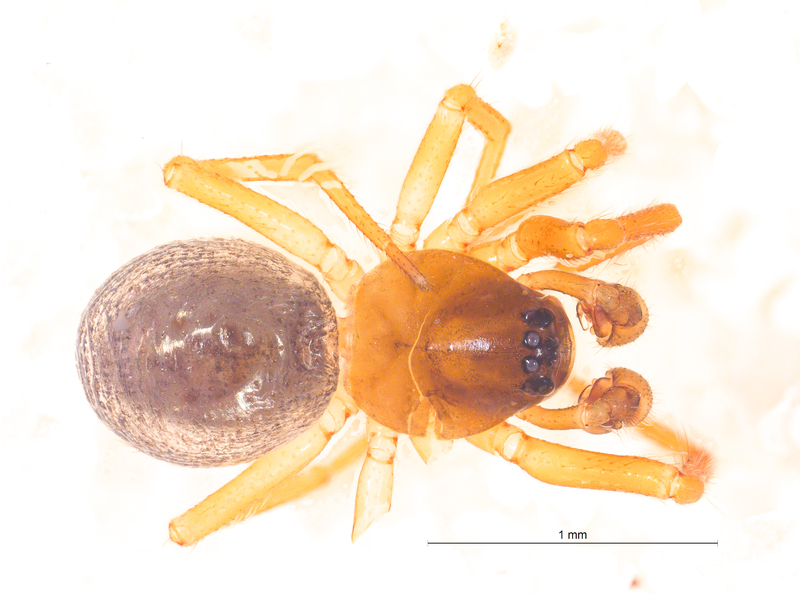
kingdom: Animalia
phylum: Arthropoda
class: Arachnida
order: Araneae
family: Linyphiidae
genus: Maso
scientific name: Maso sundevalli
